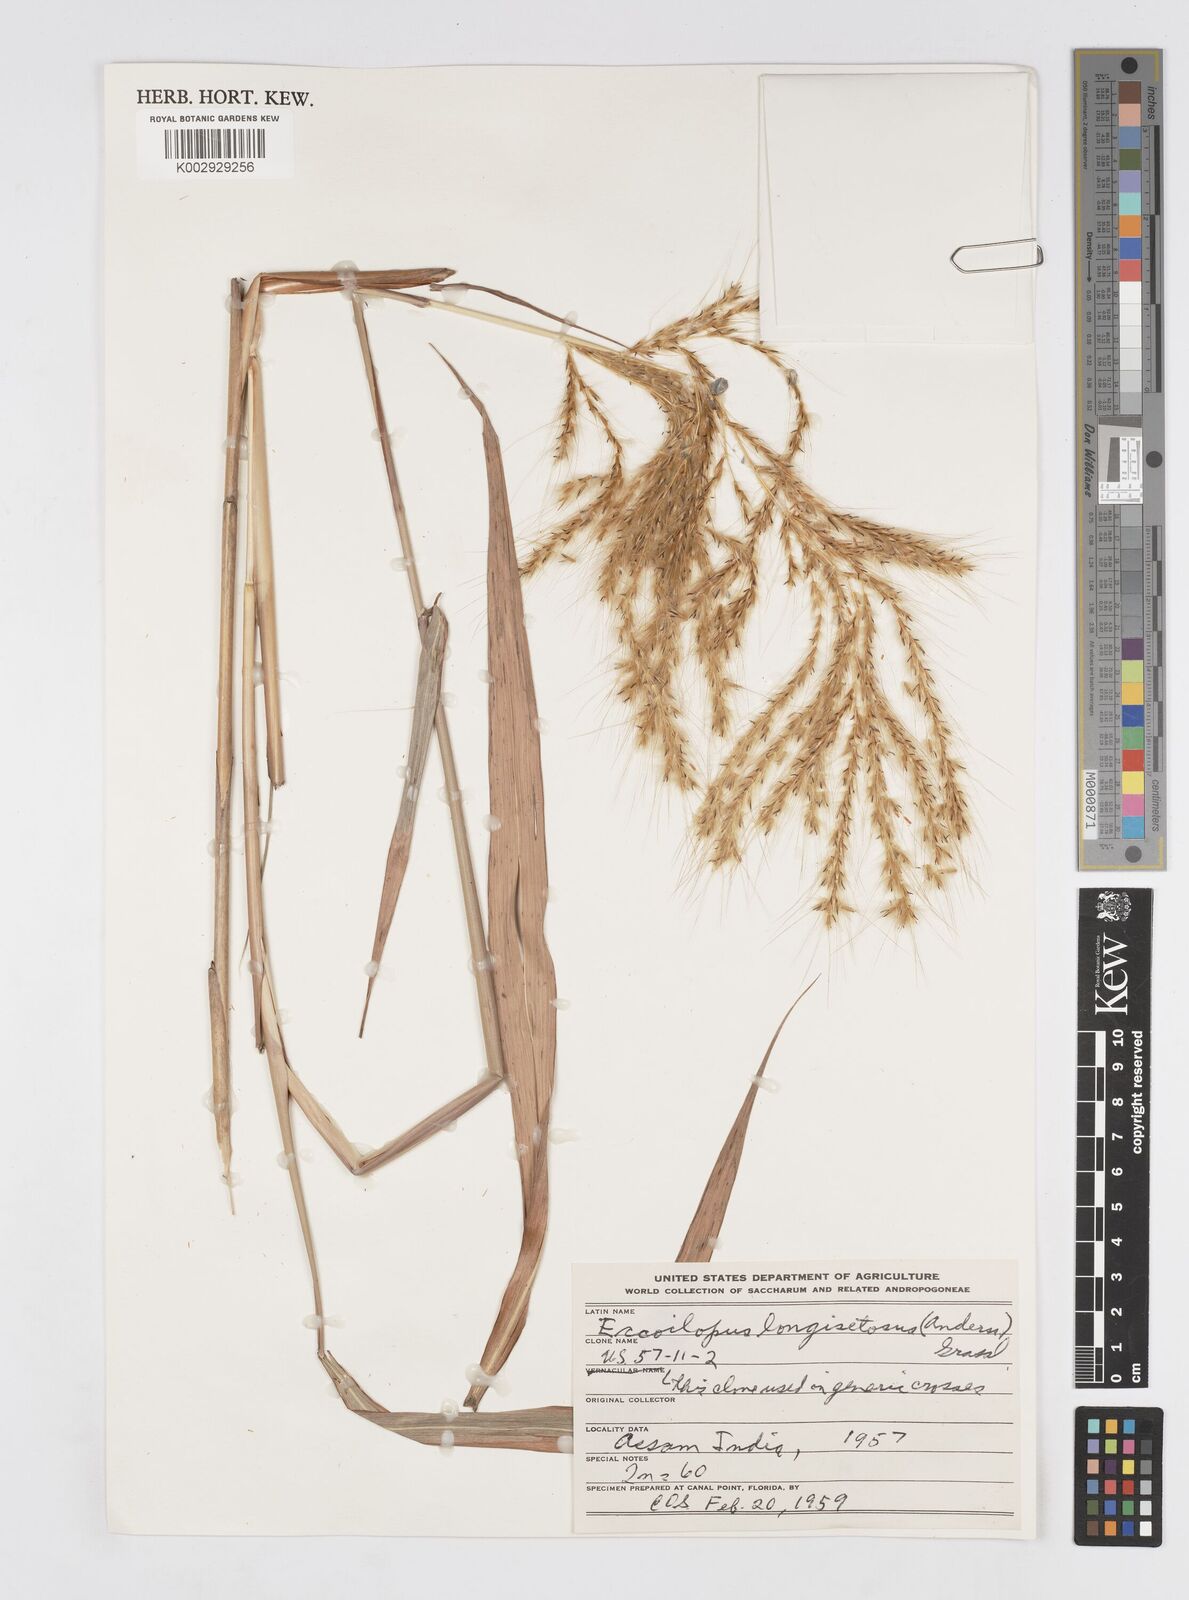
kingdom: Plantae
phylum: Tracheophyta
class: Liliopsida
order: Poales
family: Poaceae
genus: Saccharum
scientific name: Saccharum
